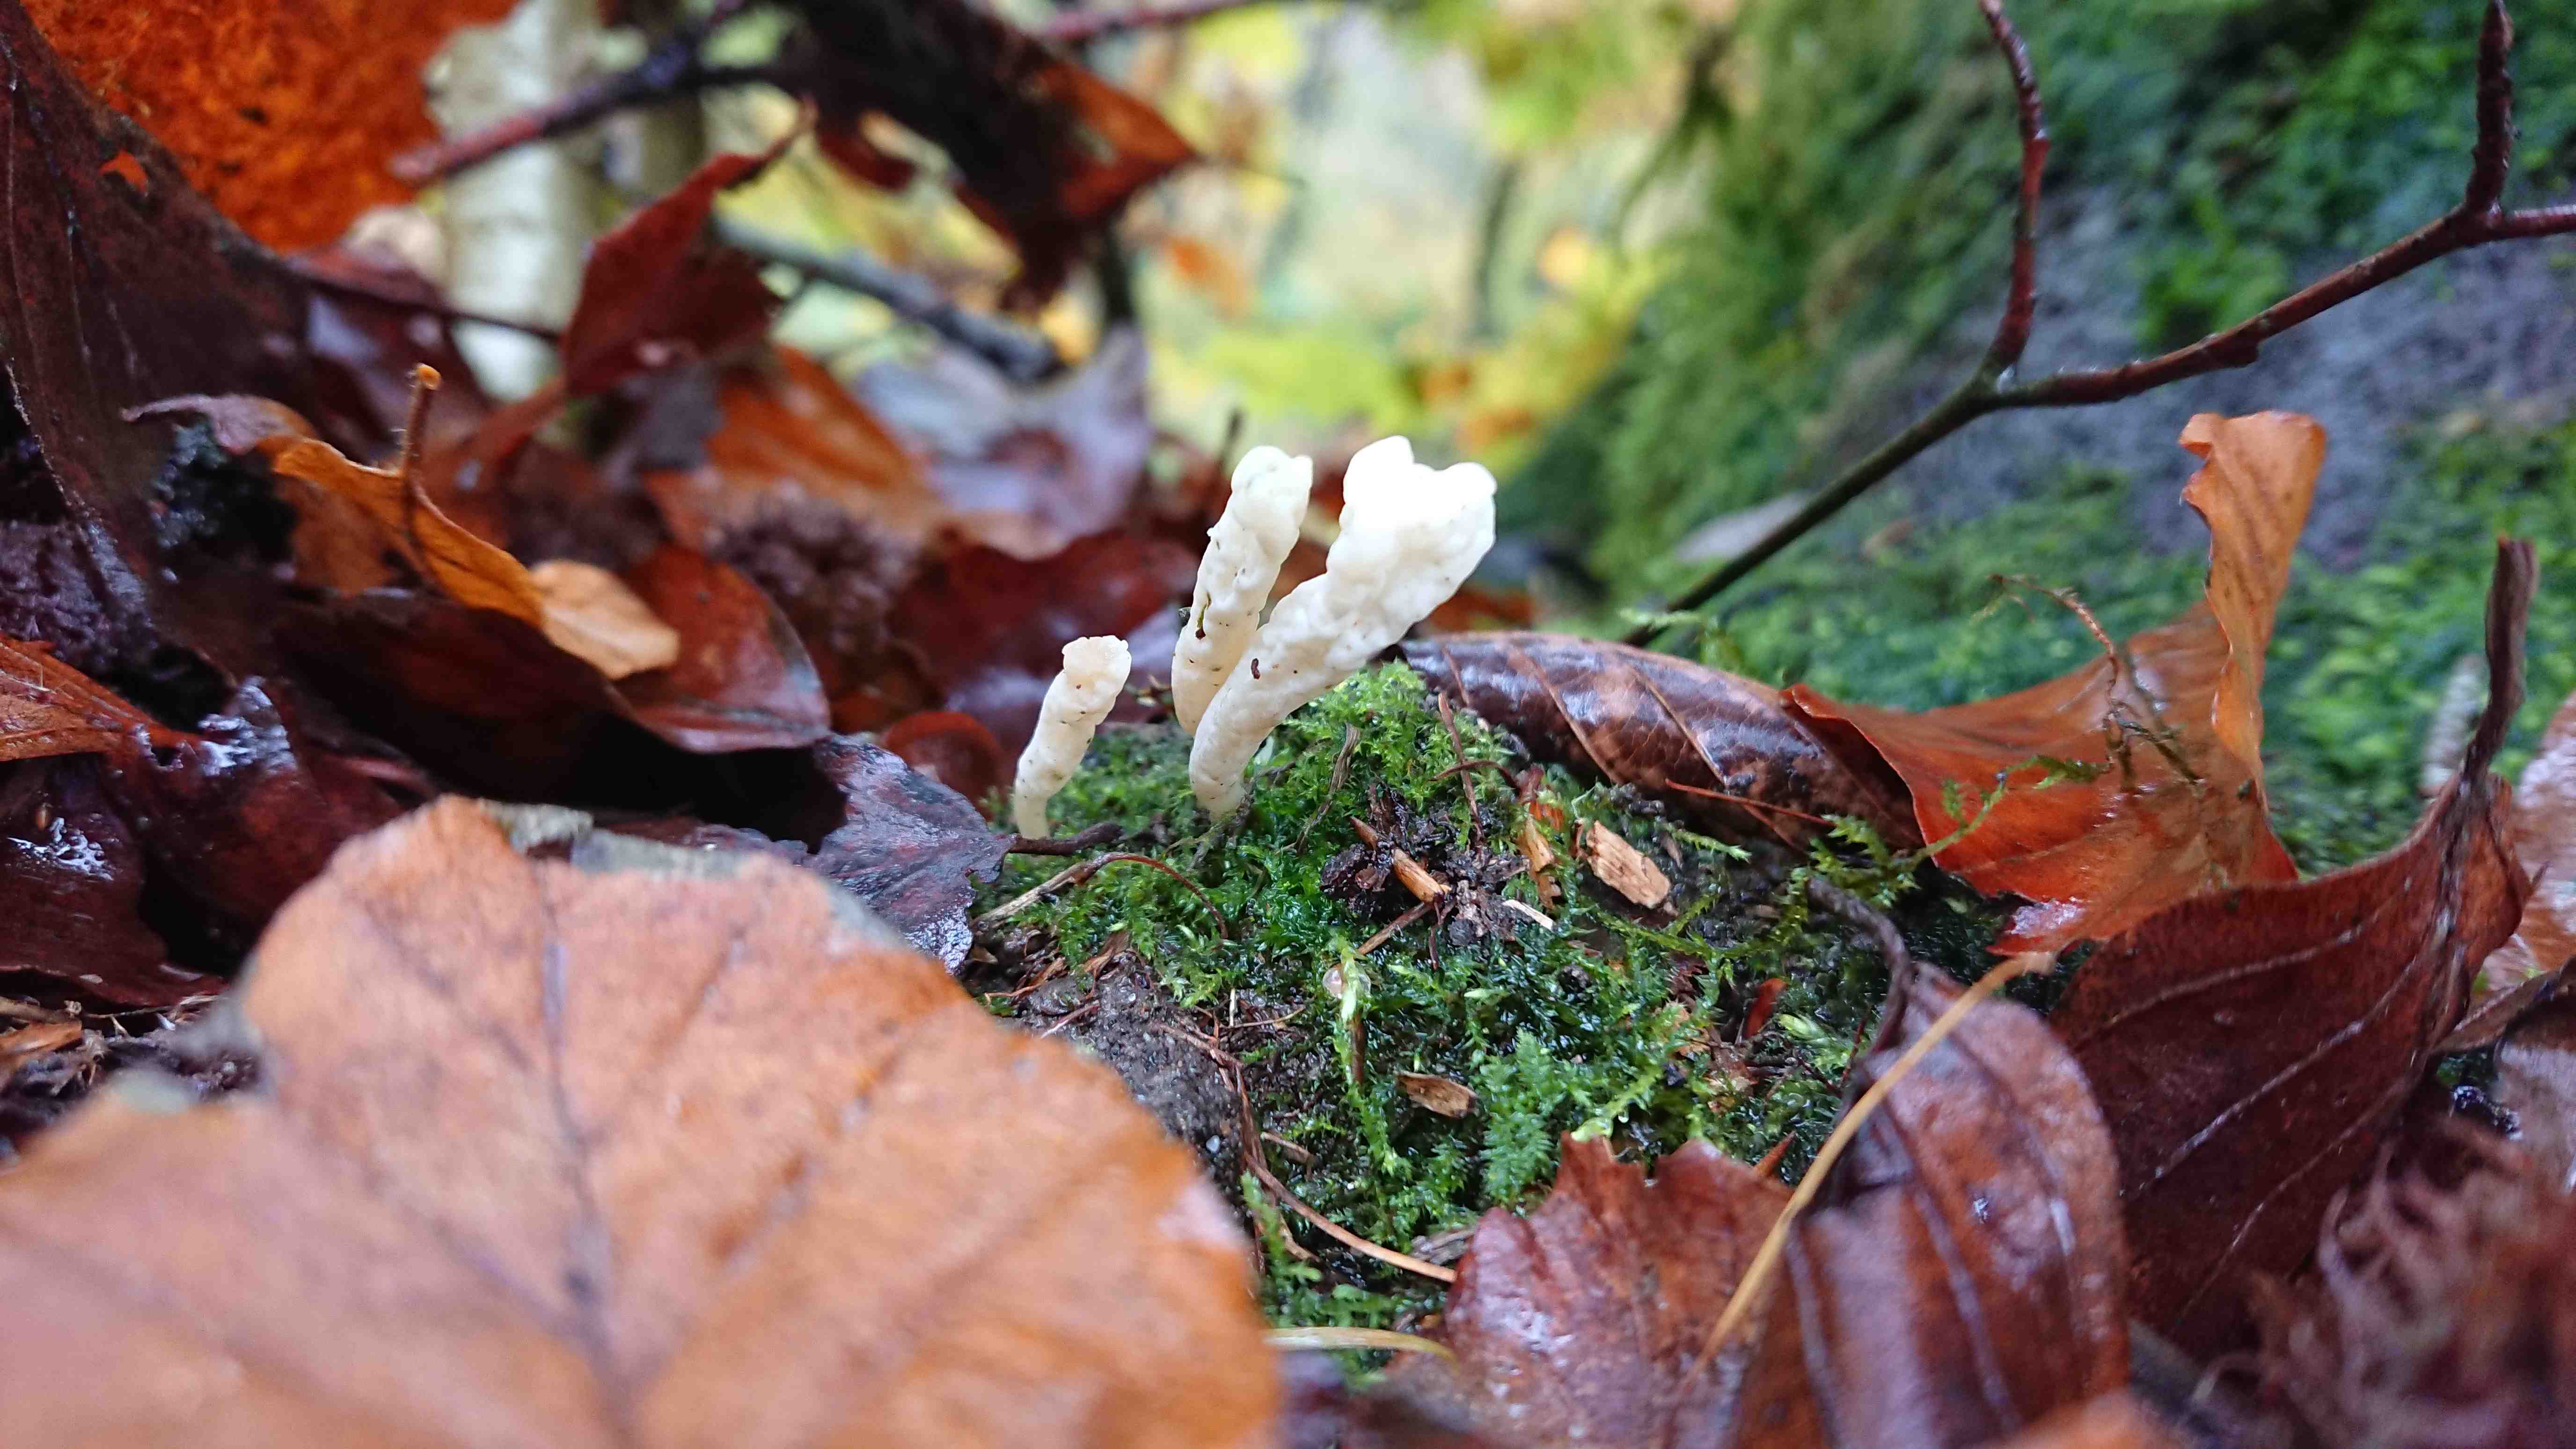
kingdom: Fungi
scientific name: Fungi
